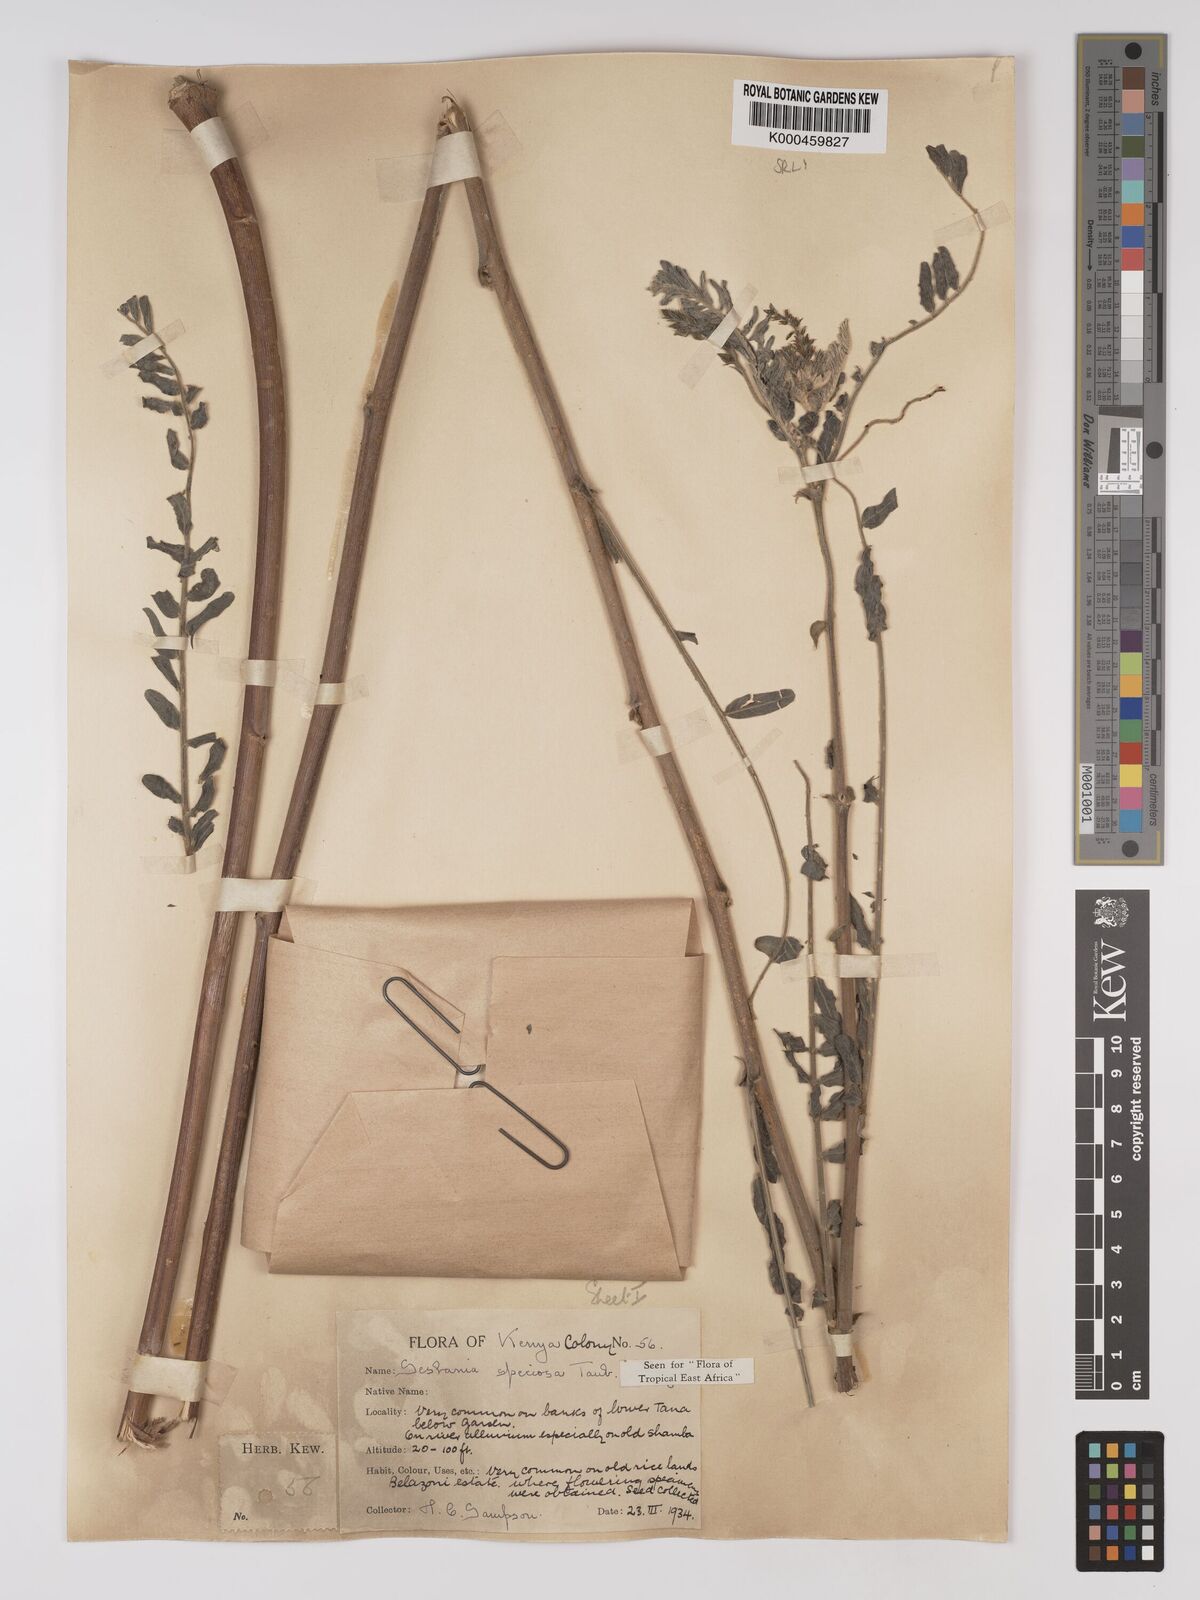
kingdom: Plantae
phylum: Tracheophyta
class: Magnoliopsida
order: Fabales
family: Fabaceae
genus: Sesbania
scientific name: Sesbania
